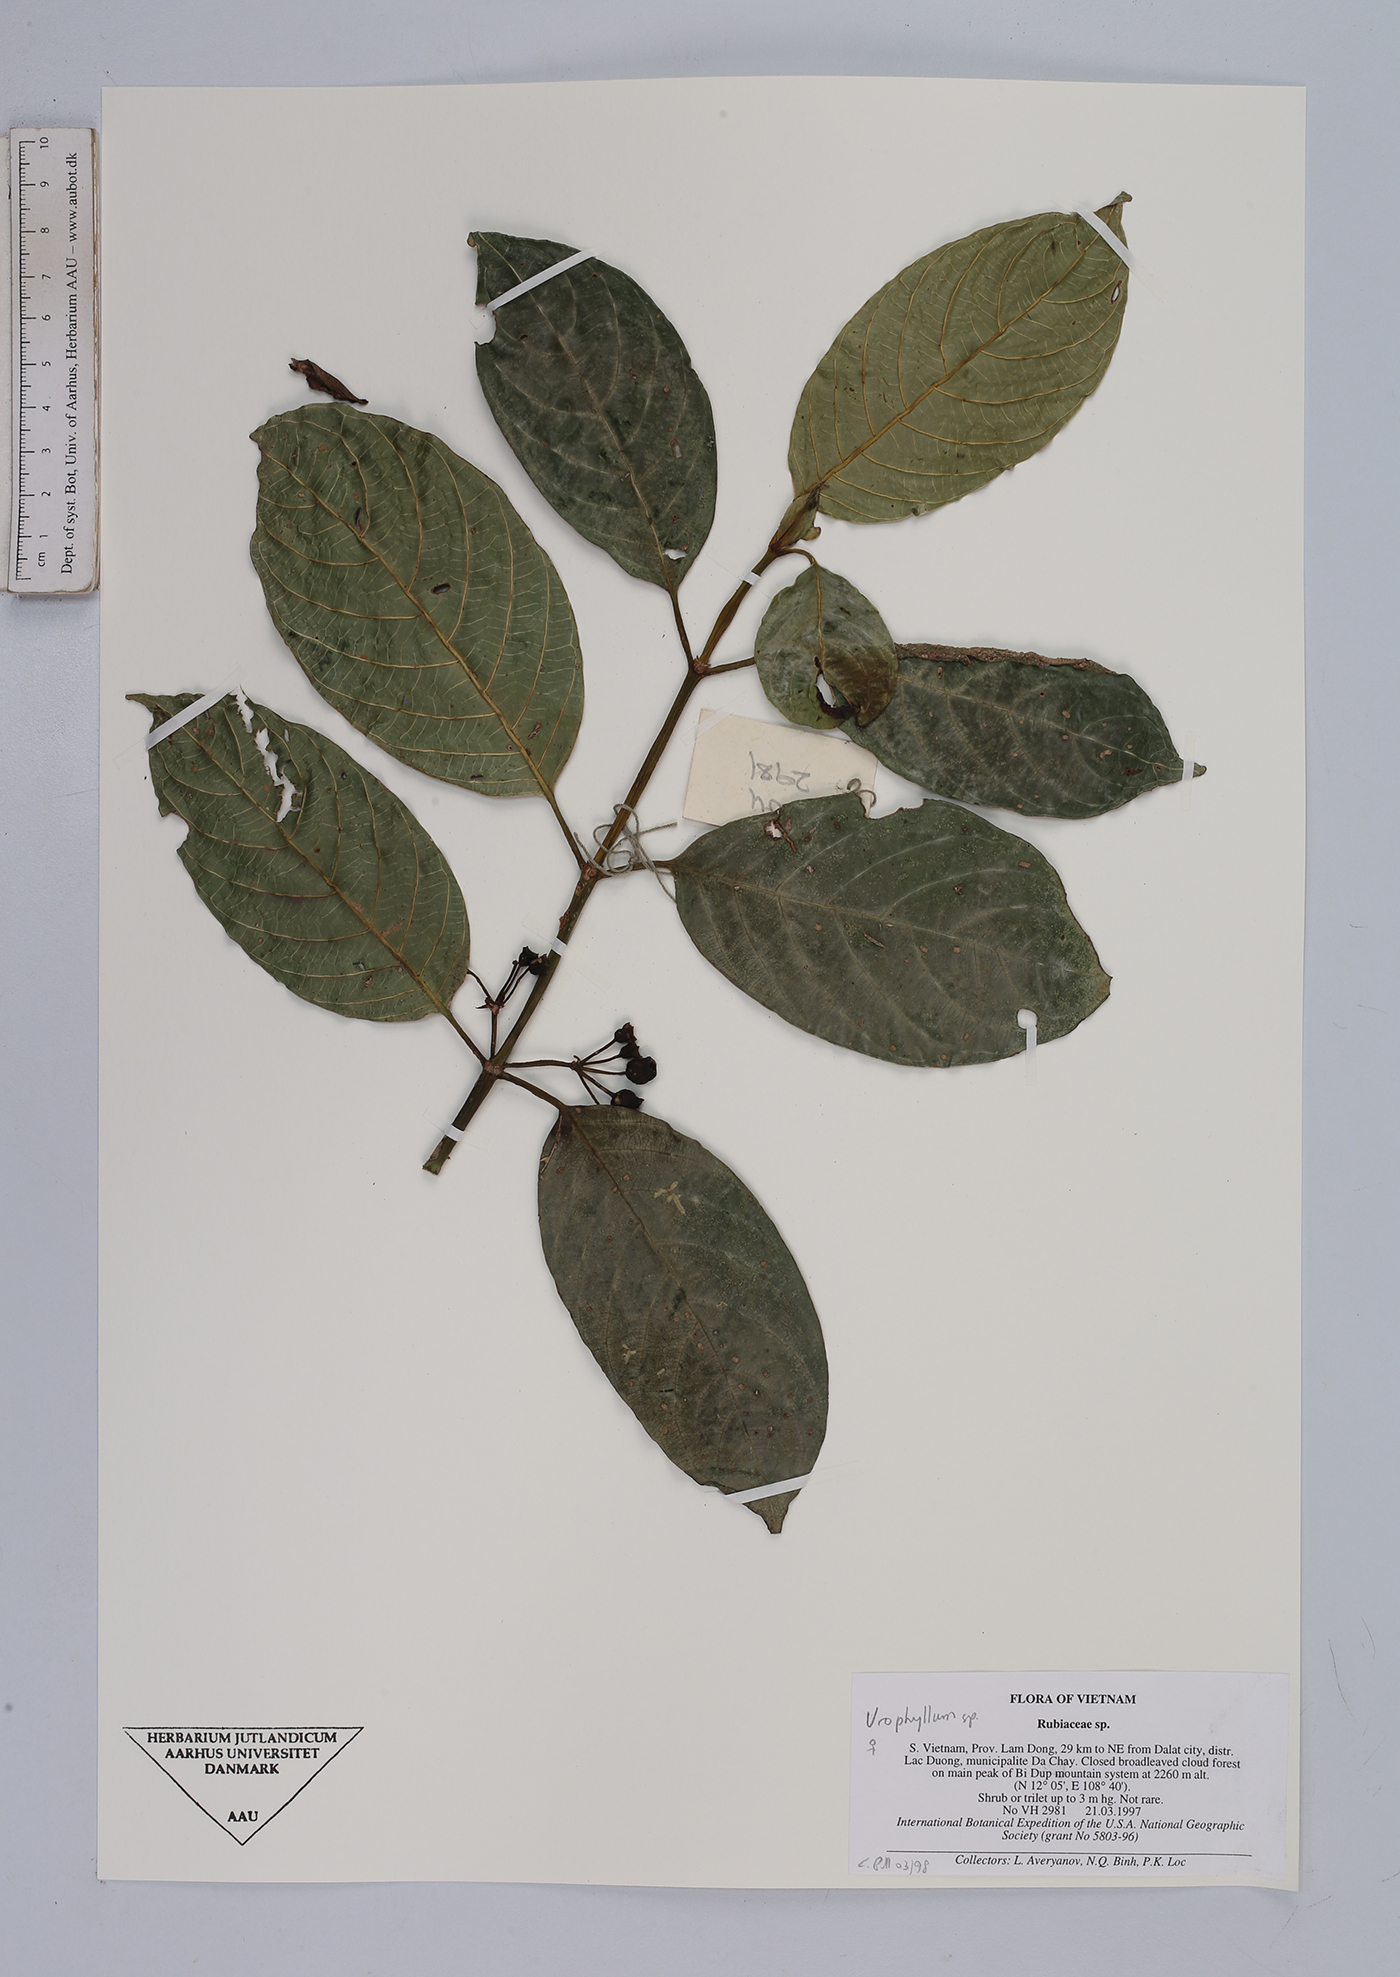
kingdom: Plantae
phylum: Tracheophyta
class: Magnoliopsida
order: Gentianales
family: Rubiaceae
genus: Urophyllum
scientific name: Urophyllum
